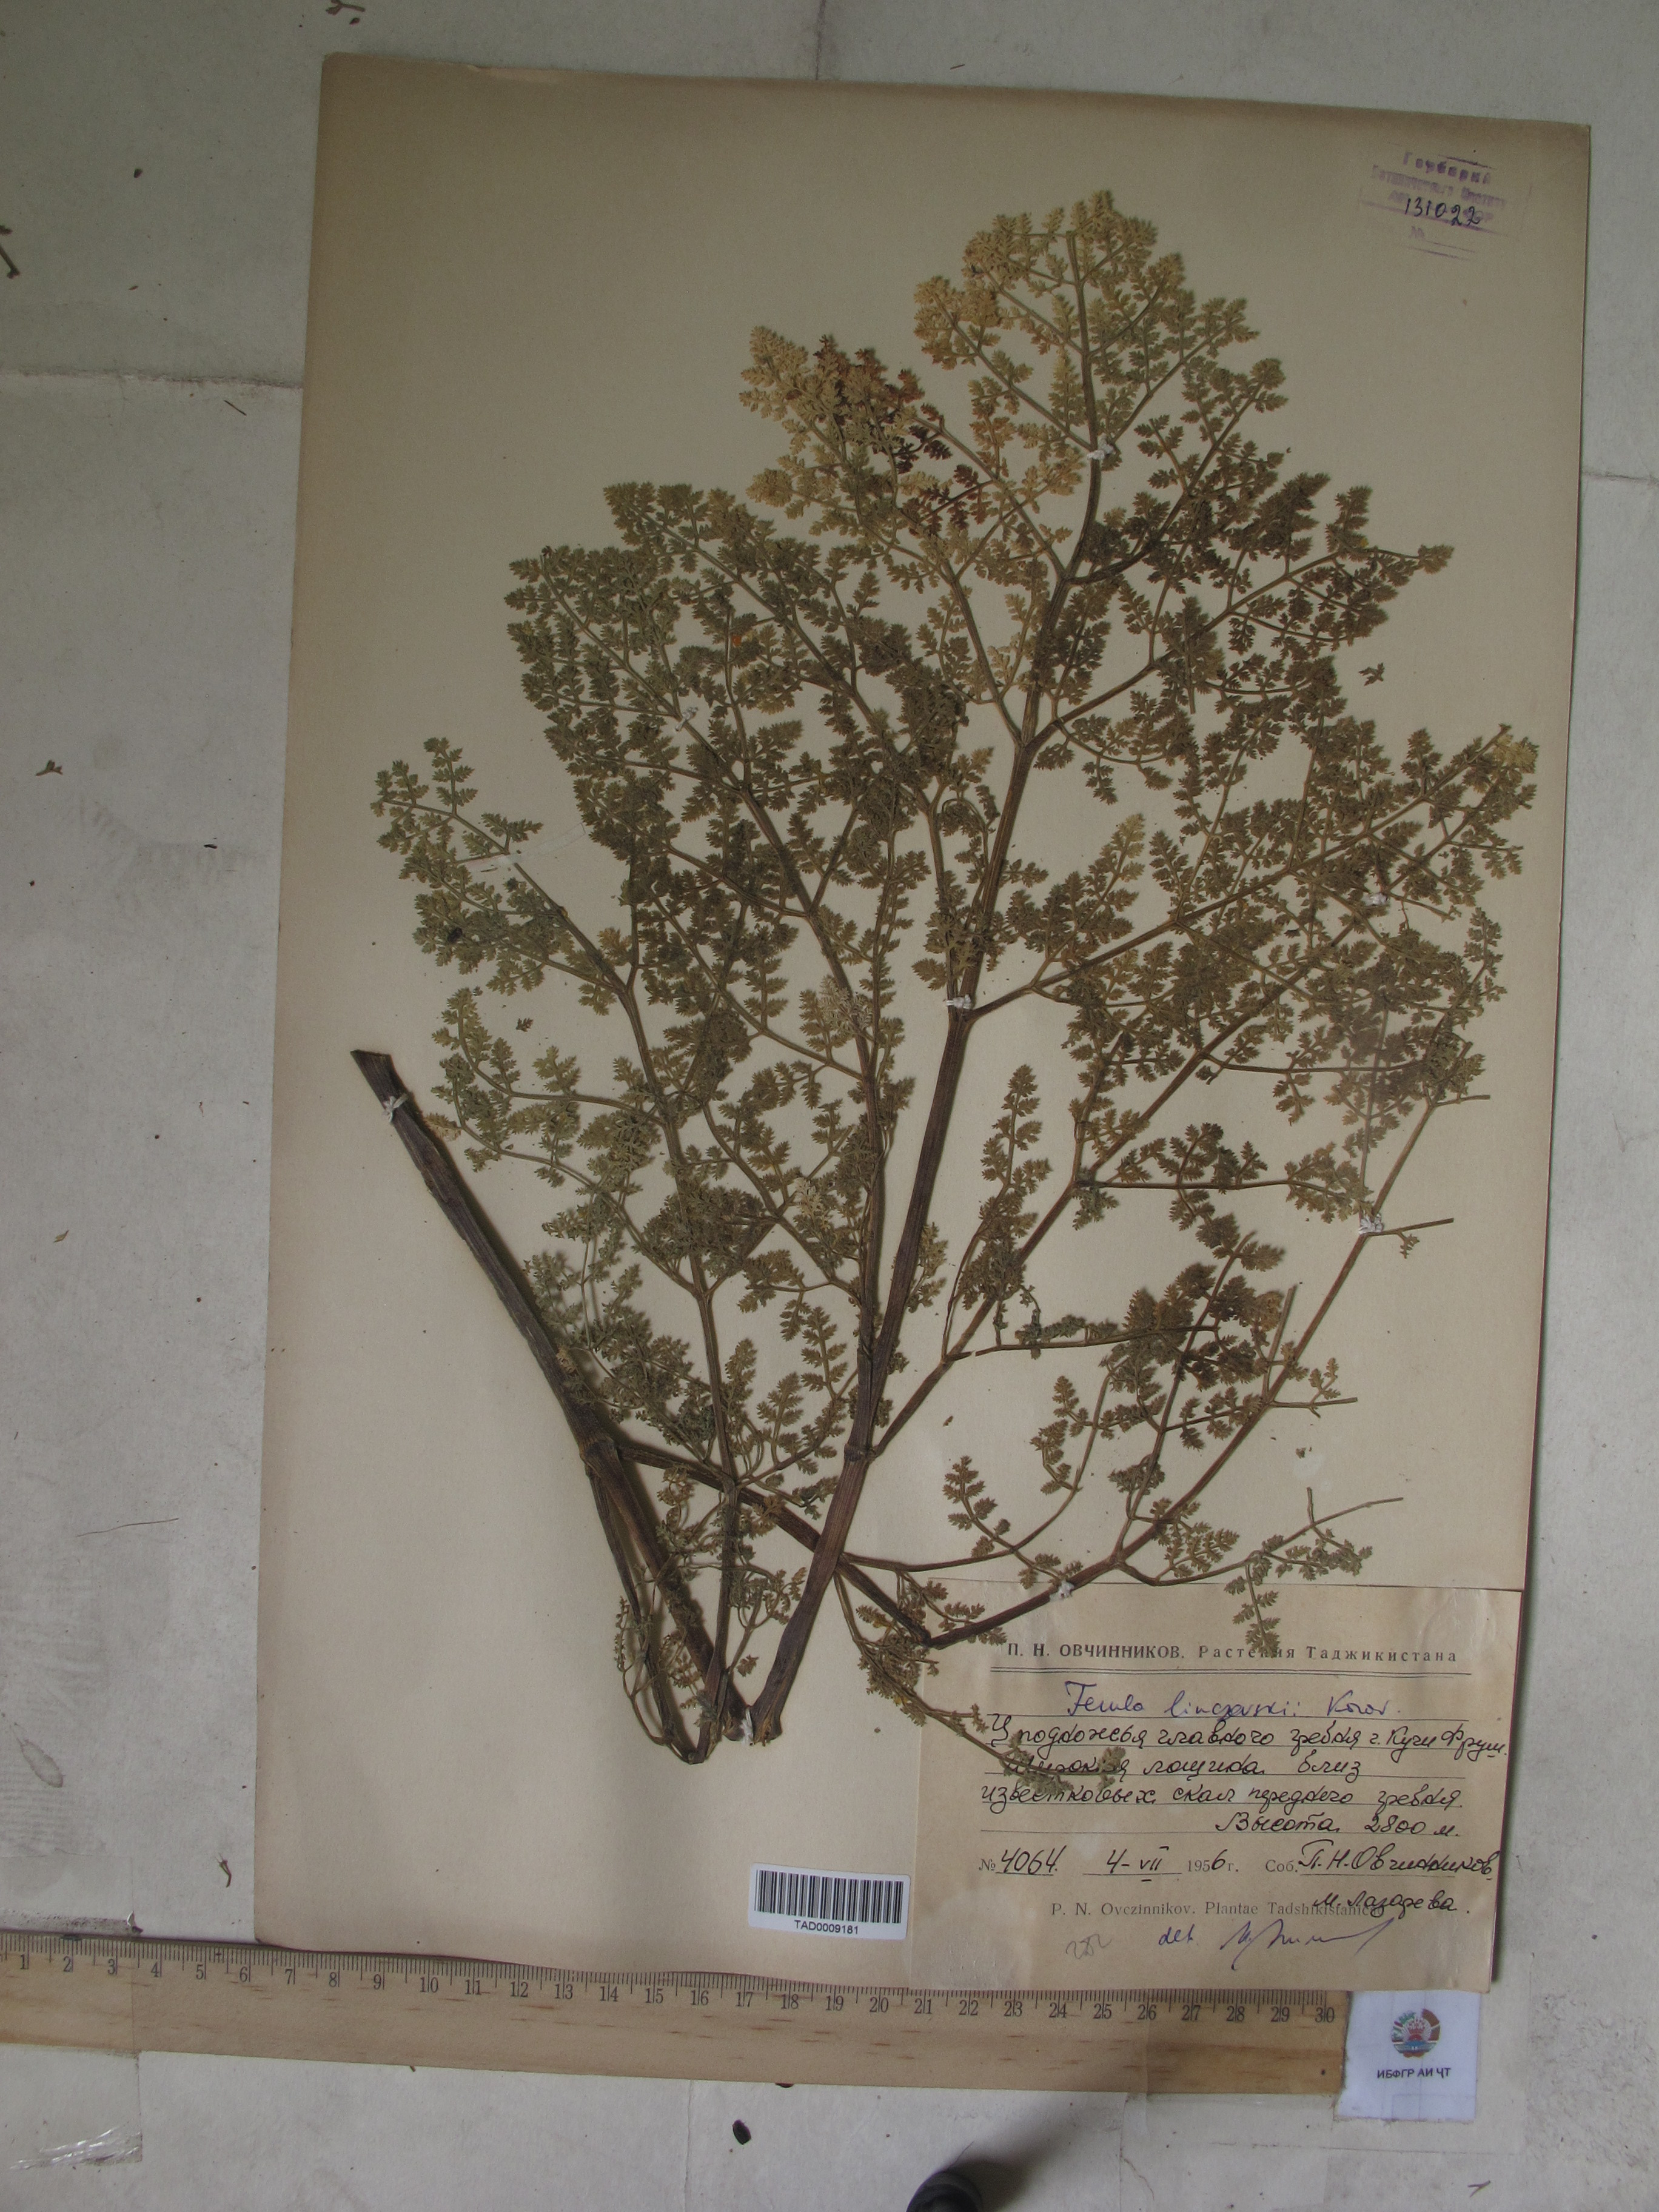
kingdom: Plantae
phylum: Tracheophyta
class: Magnoliopsida
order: Apiales
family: Apiaceae
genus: Ferula
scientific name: Ferula linczevskii
